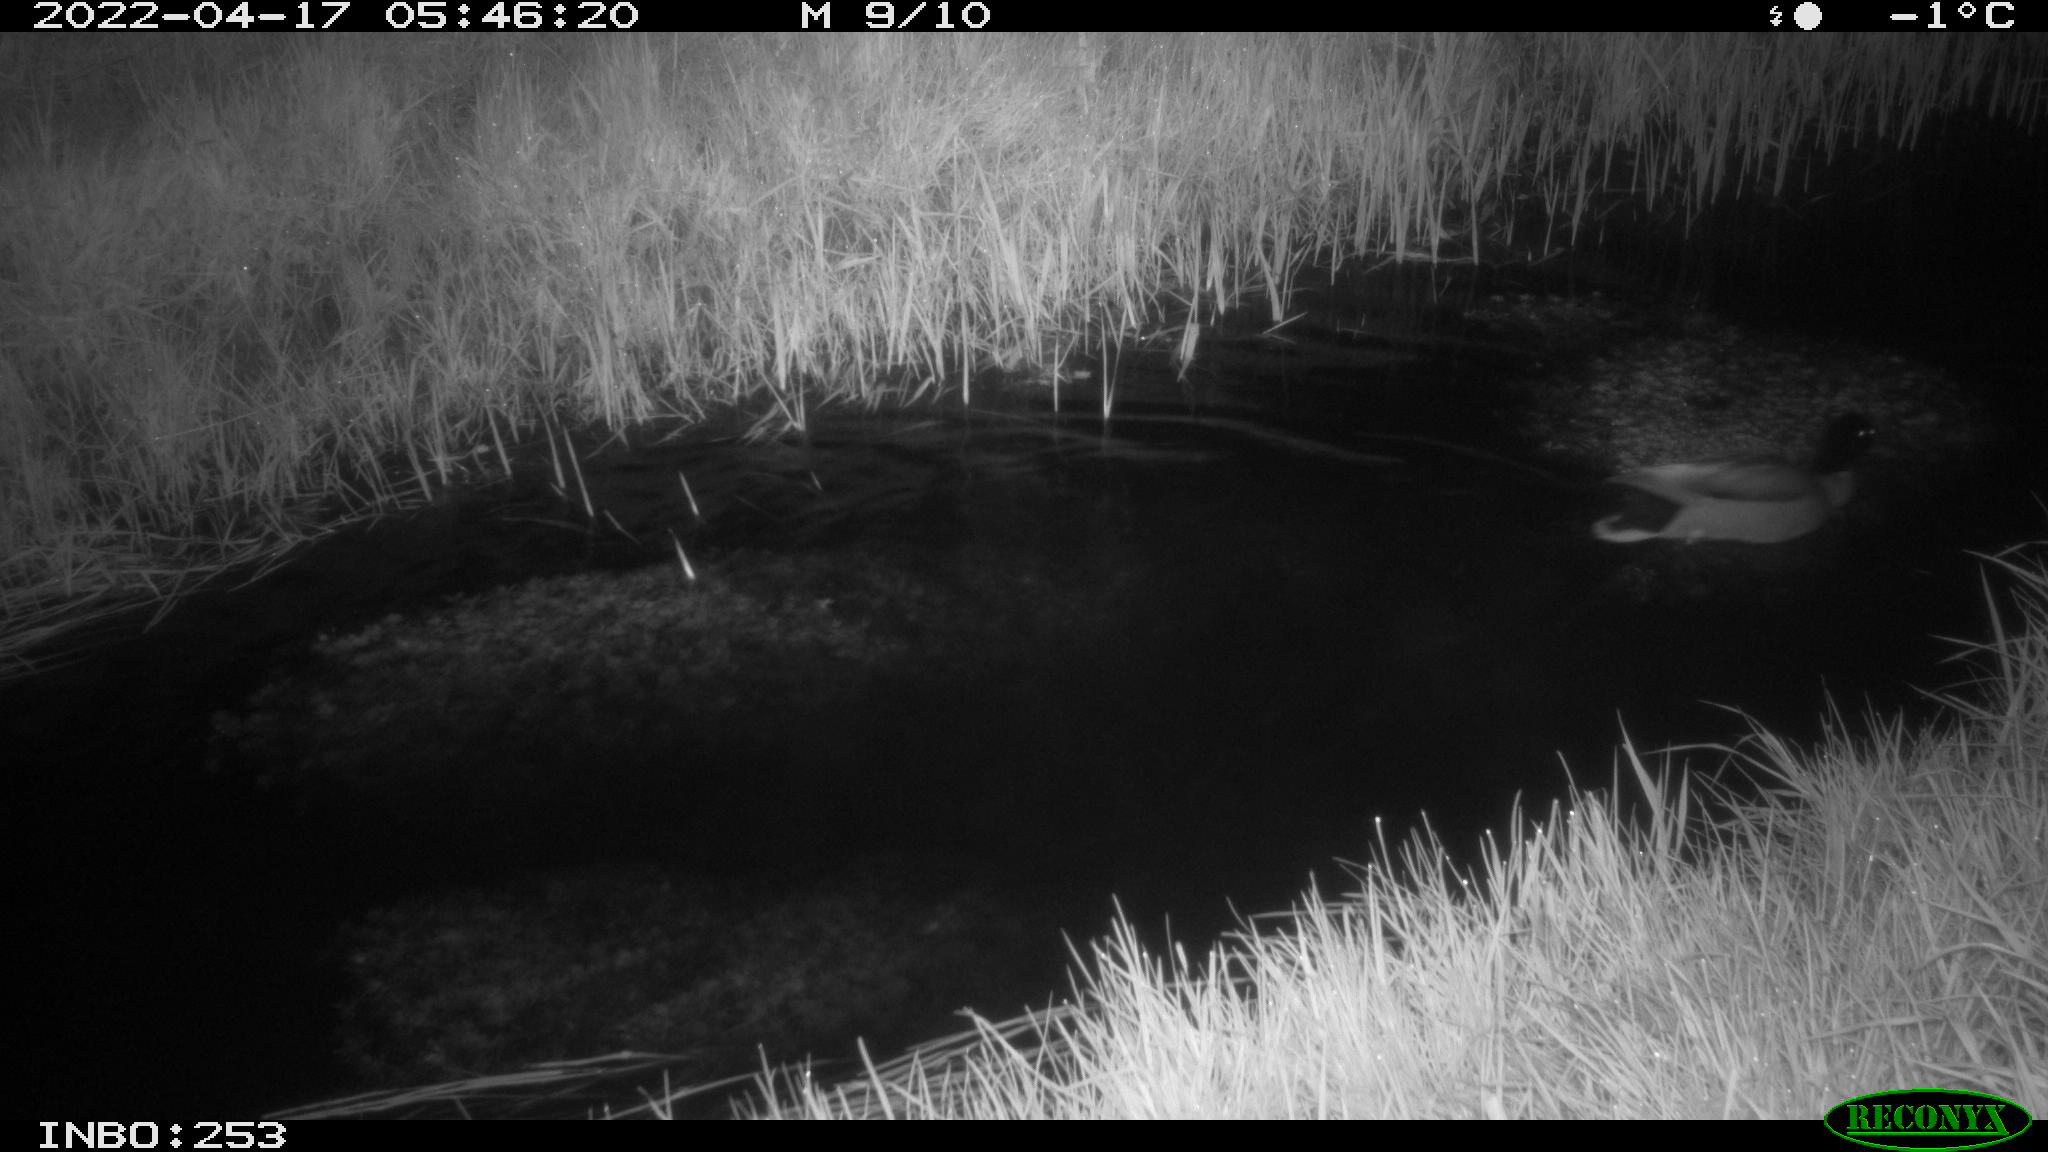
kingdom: Animalia
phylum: Chordata
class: Aves
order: Anseriformes
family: Anatidae
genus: Anas
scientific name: Anas platyrhynchos
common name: Mallard
